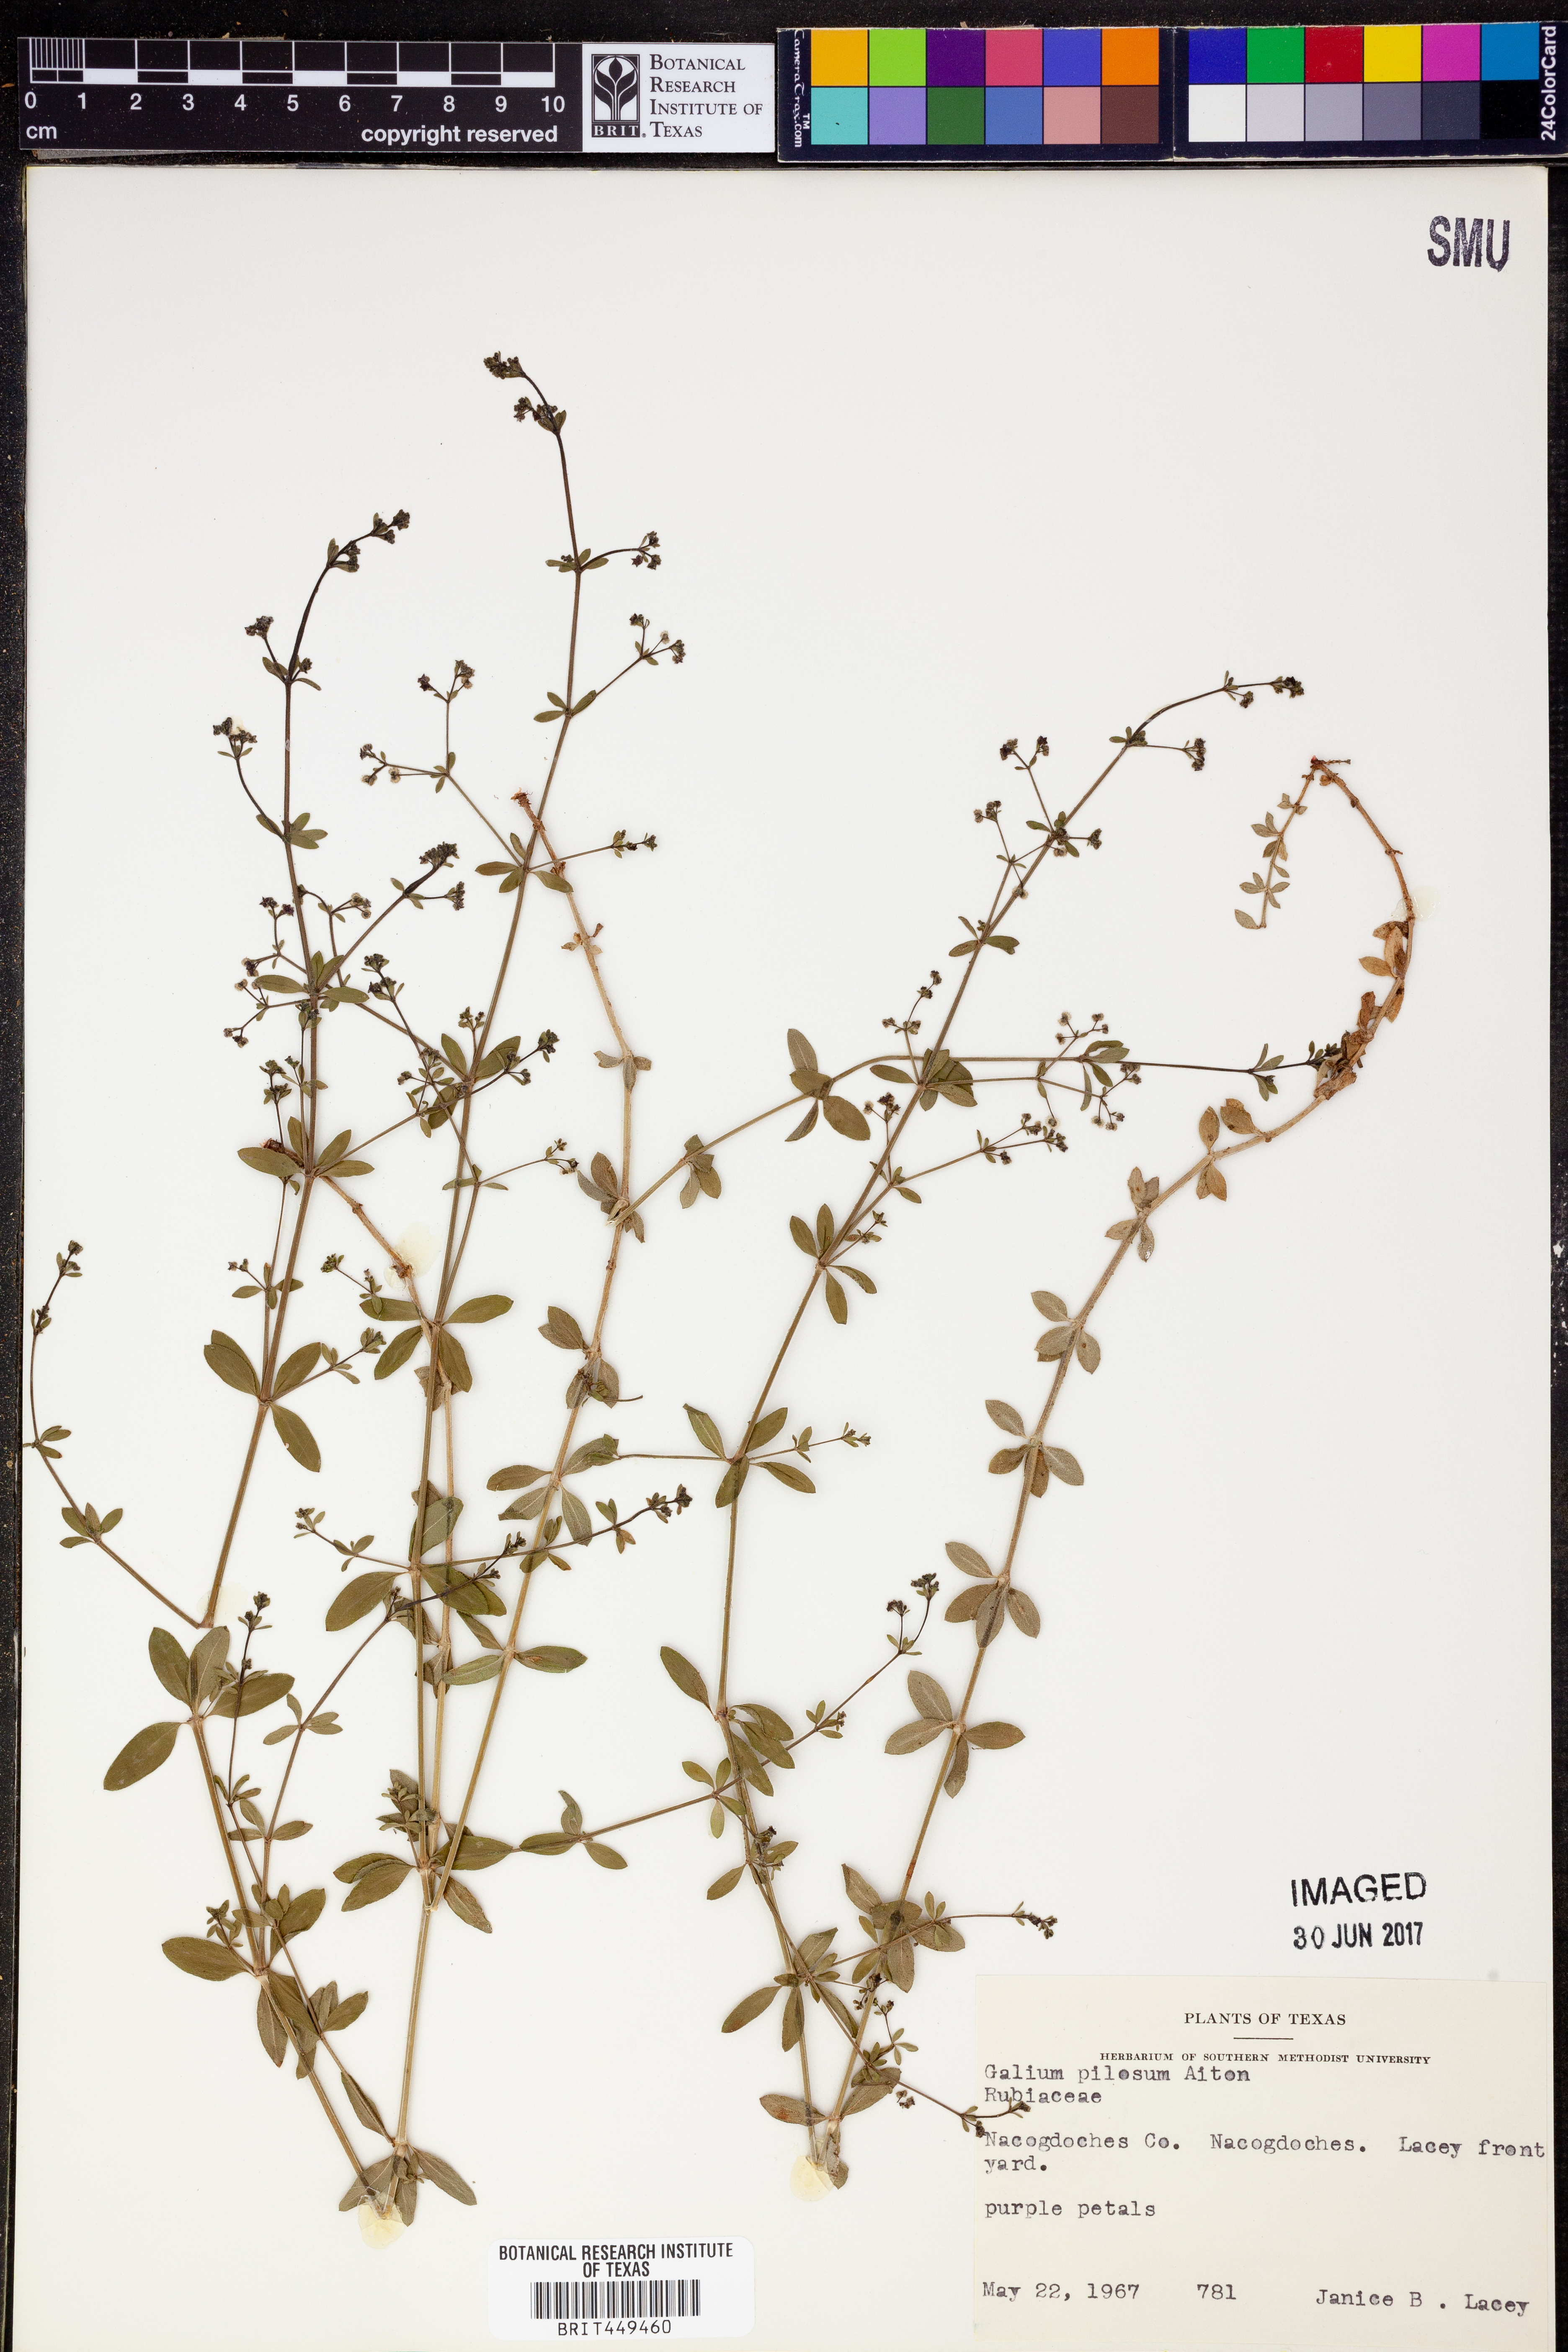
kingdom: Plantae
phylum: Tracheophyta
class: Magnoliopsida
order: Gentianales
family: Rubiaceae
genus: Galium
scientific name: Galium pilosum
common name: Hairy bedstraw
